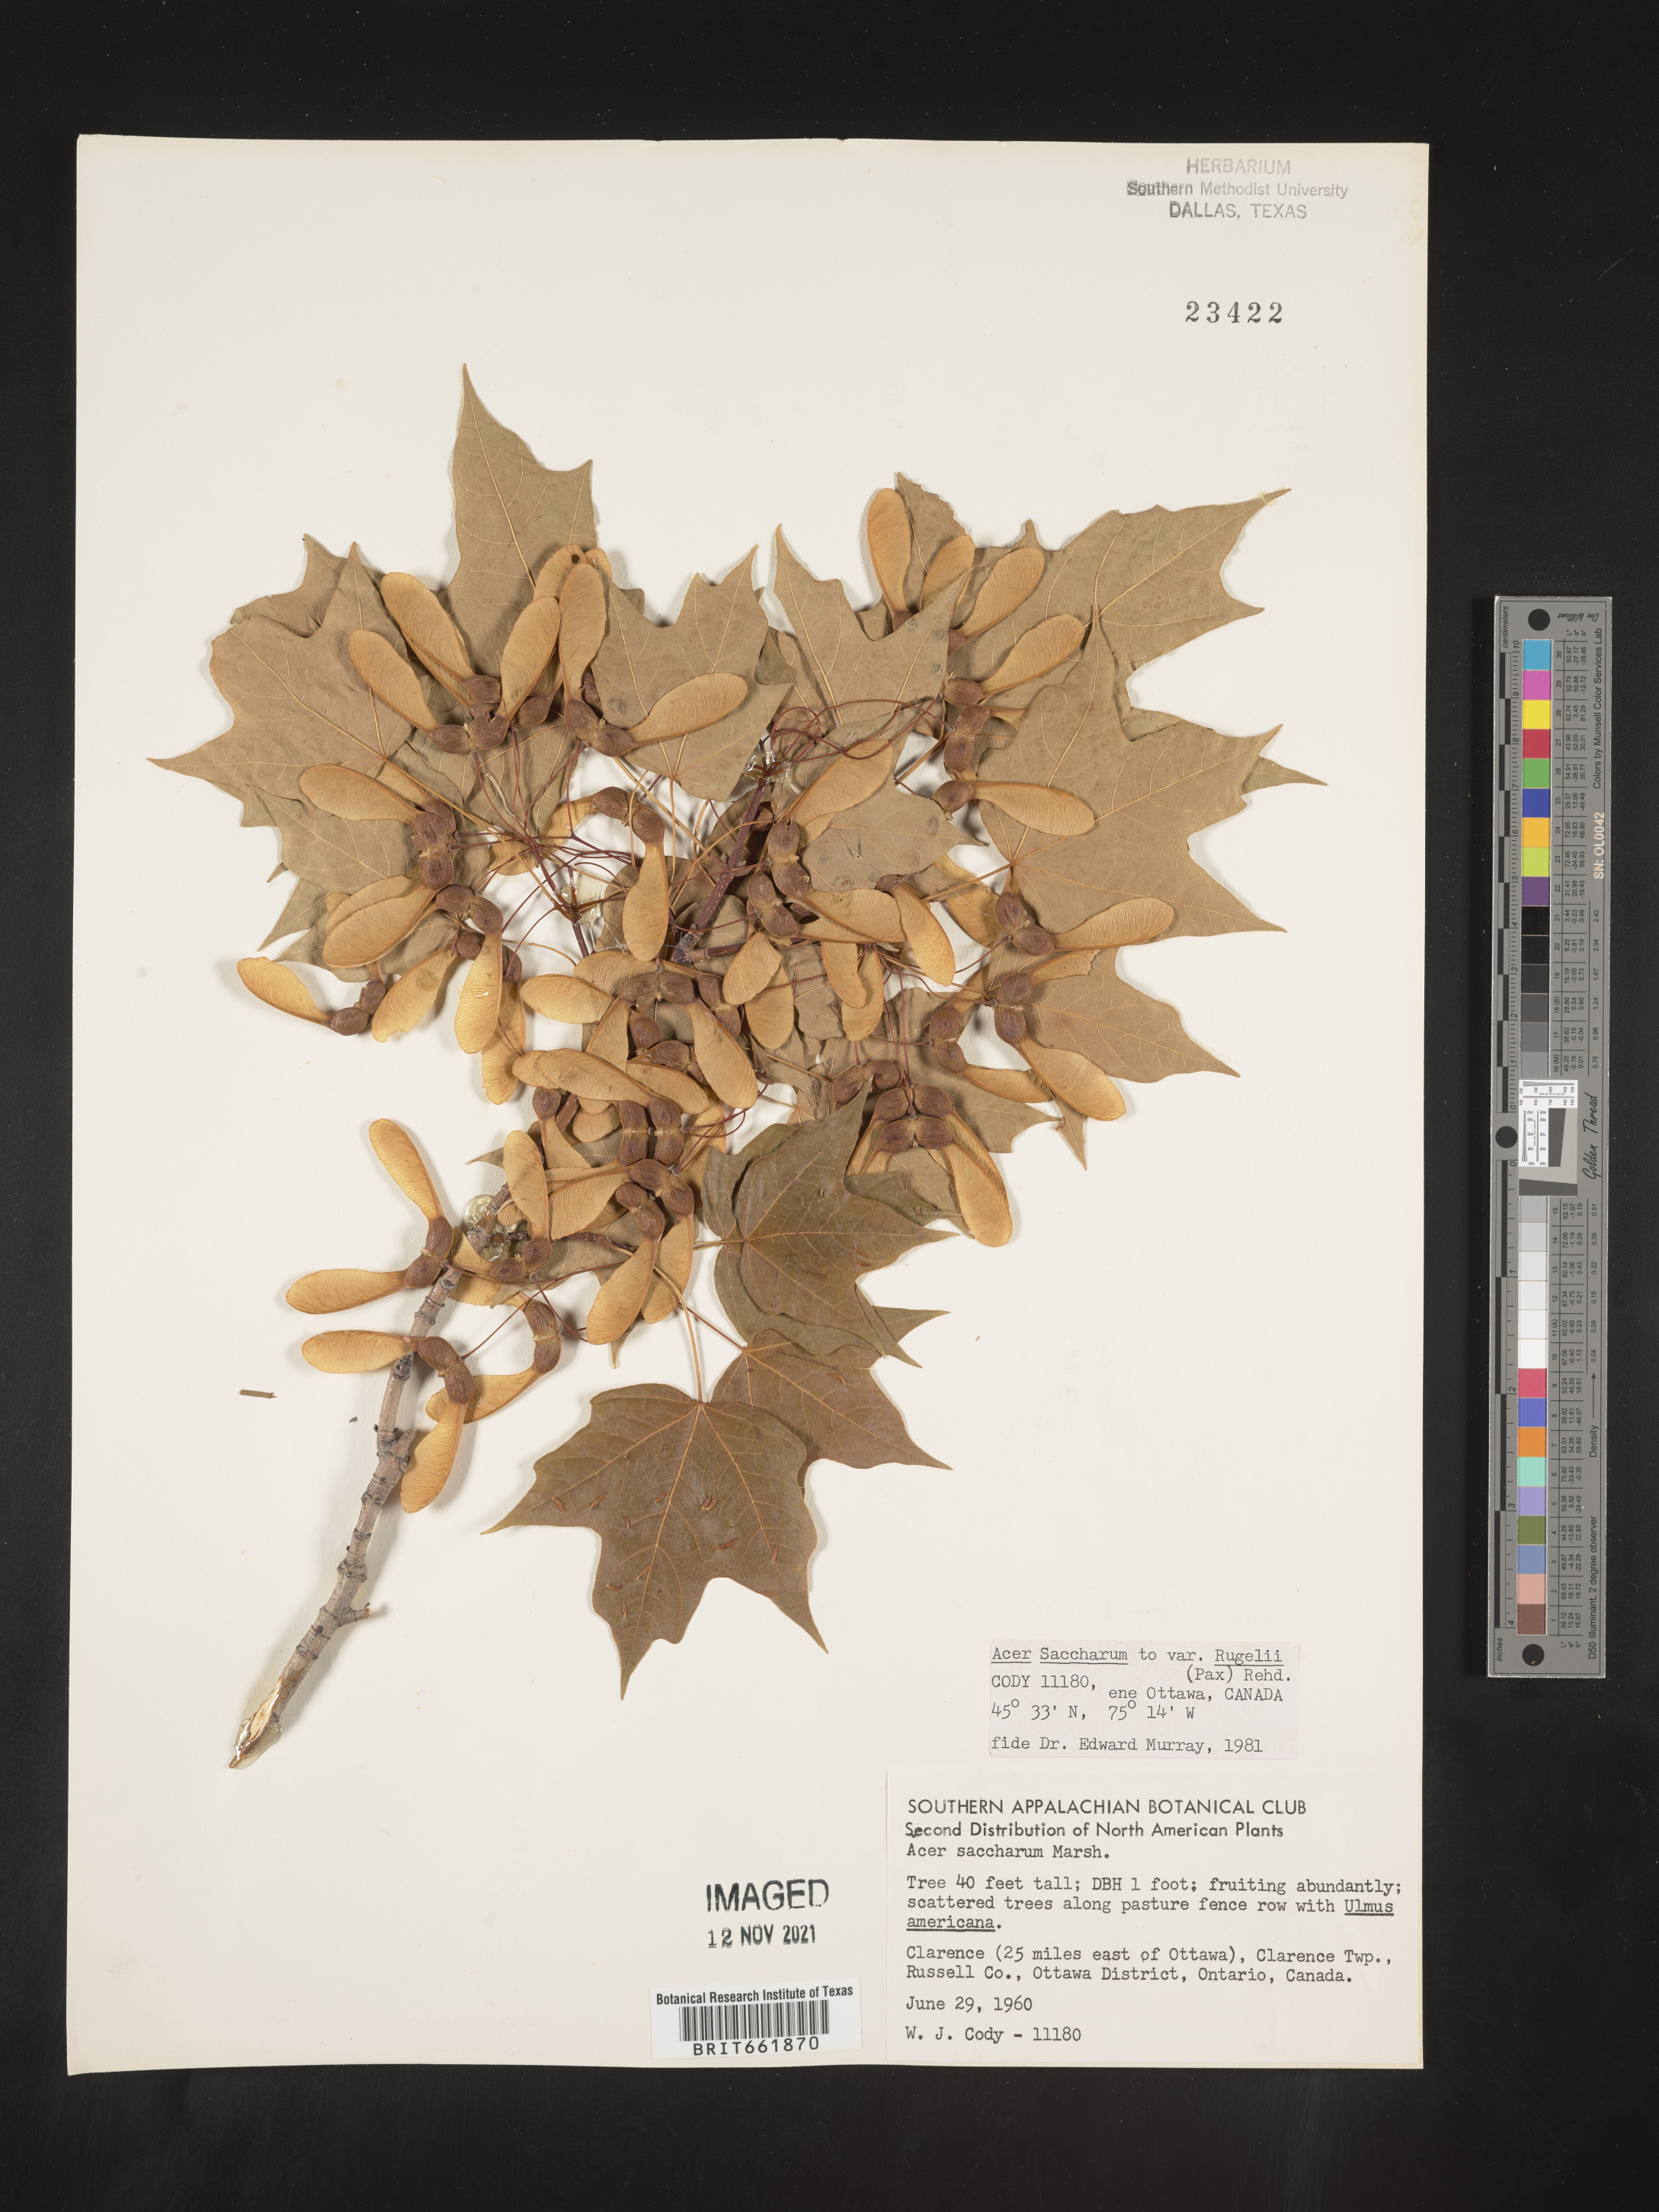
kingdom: Plantae
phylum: Tracheophyta
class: Magnoliopsida
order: Sapindales
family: Sapindaceae
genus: Acer
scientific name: Acer saccharum
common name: Sugar maple
